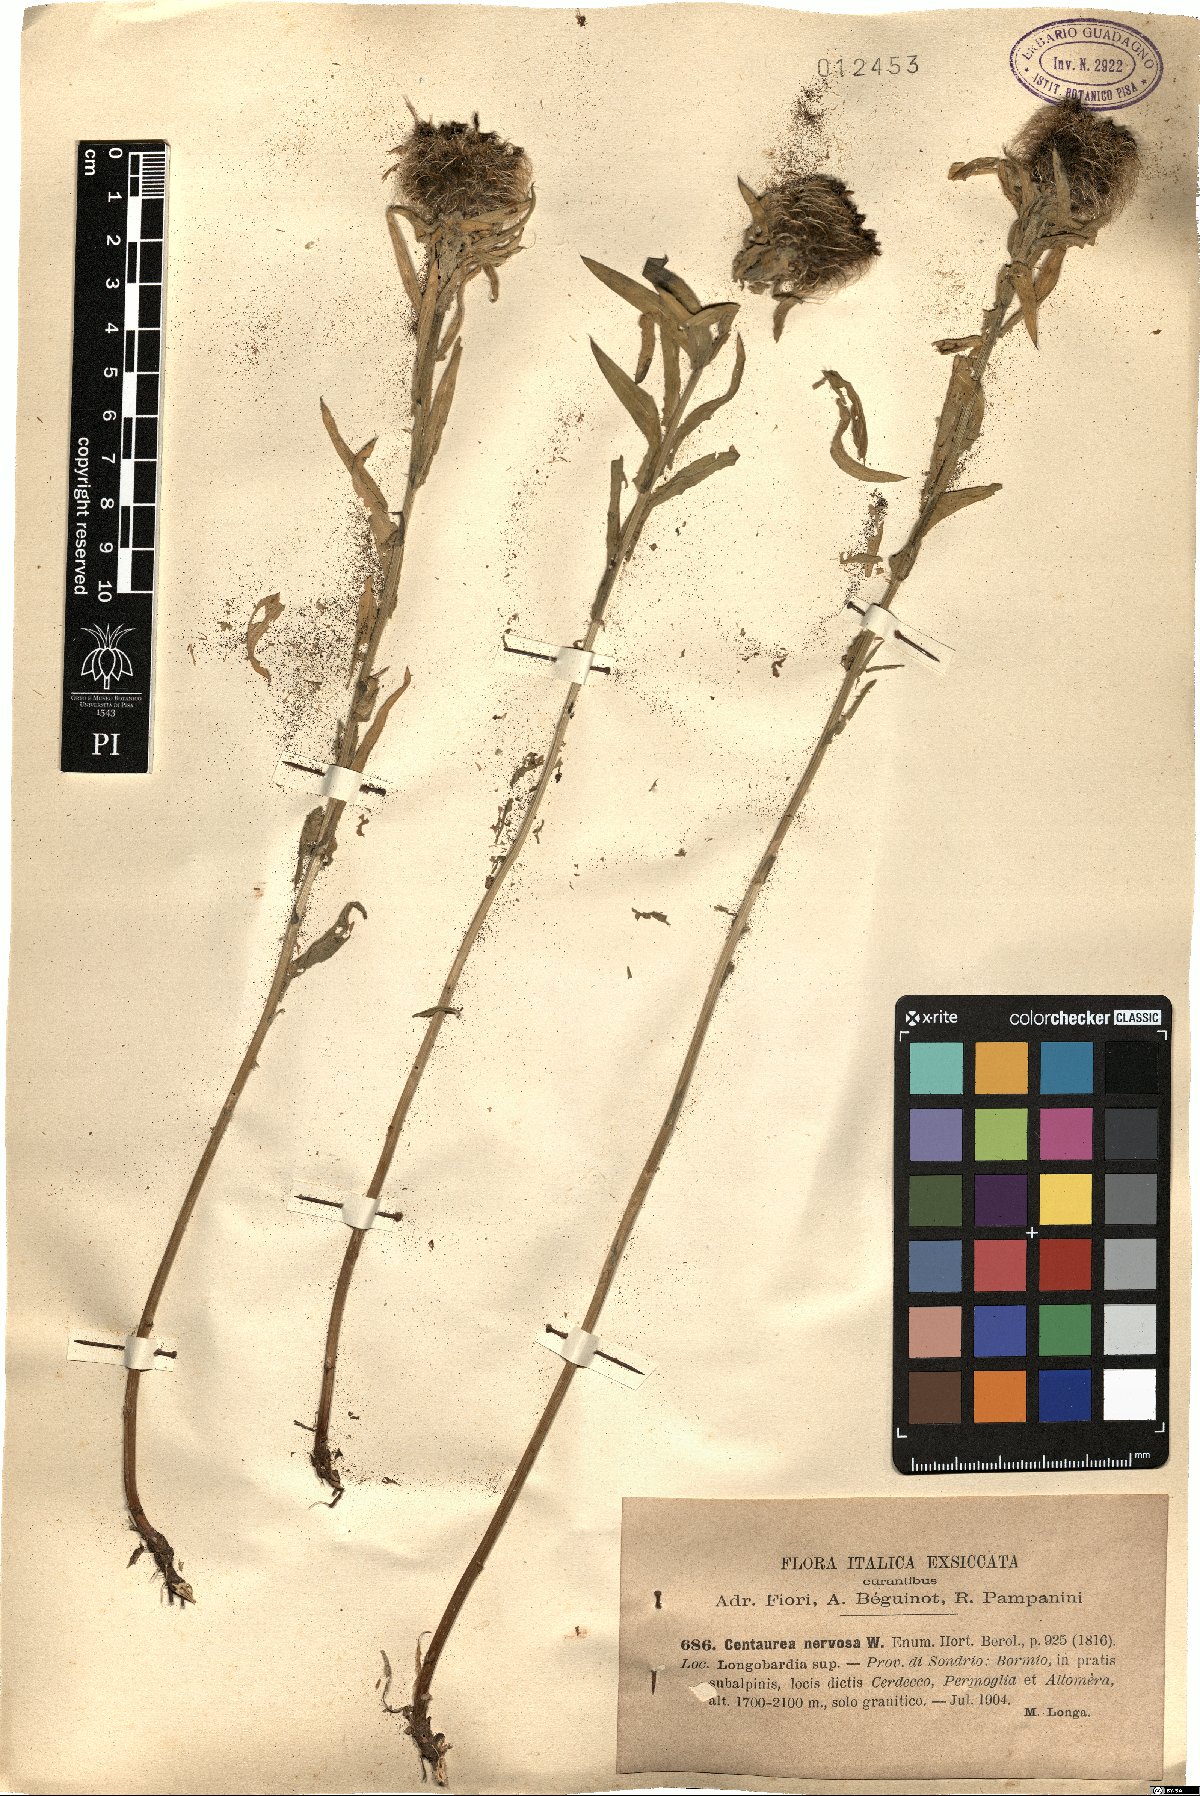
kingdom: Plantae
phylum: Tracheophyta
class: Magnoliopsida
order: Asterales
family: Asteraceae
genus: Centaurea
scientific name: Centaurea nervosa
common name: Singleflower knapweed
